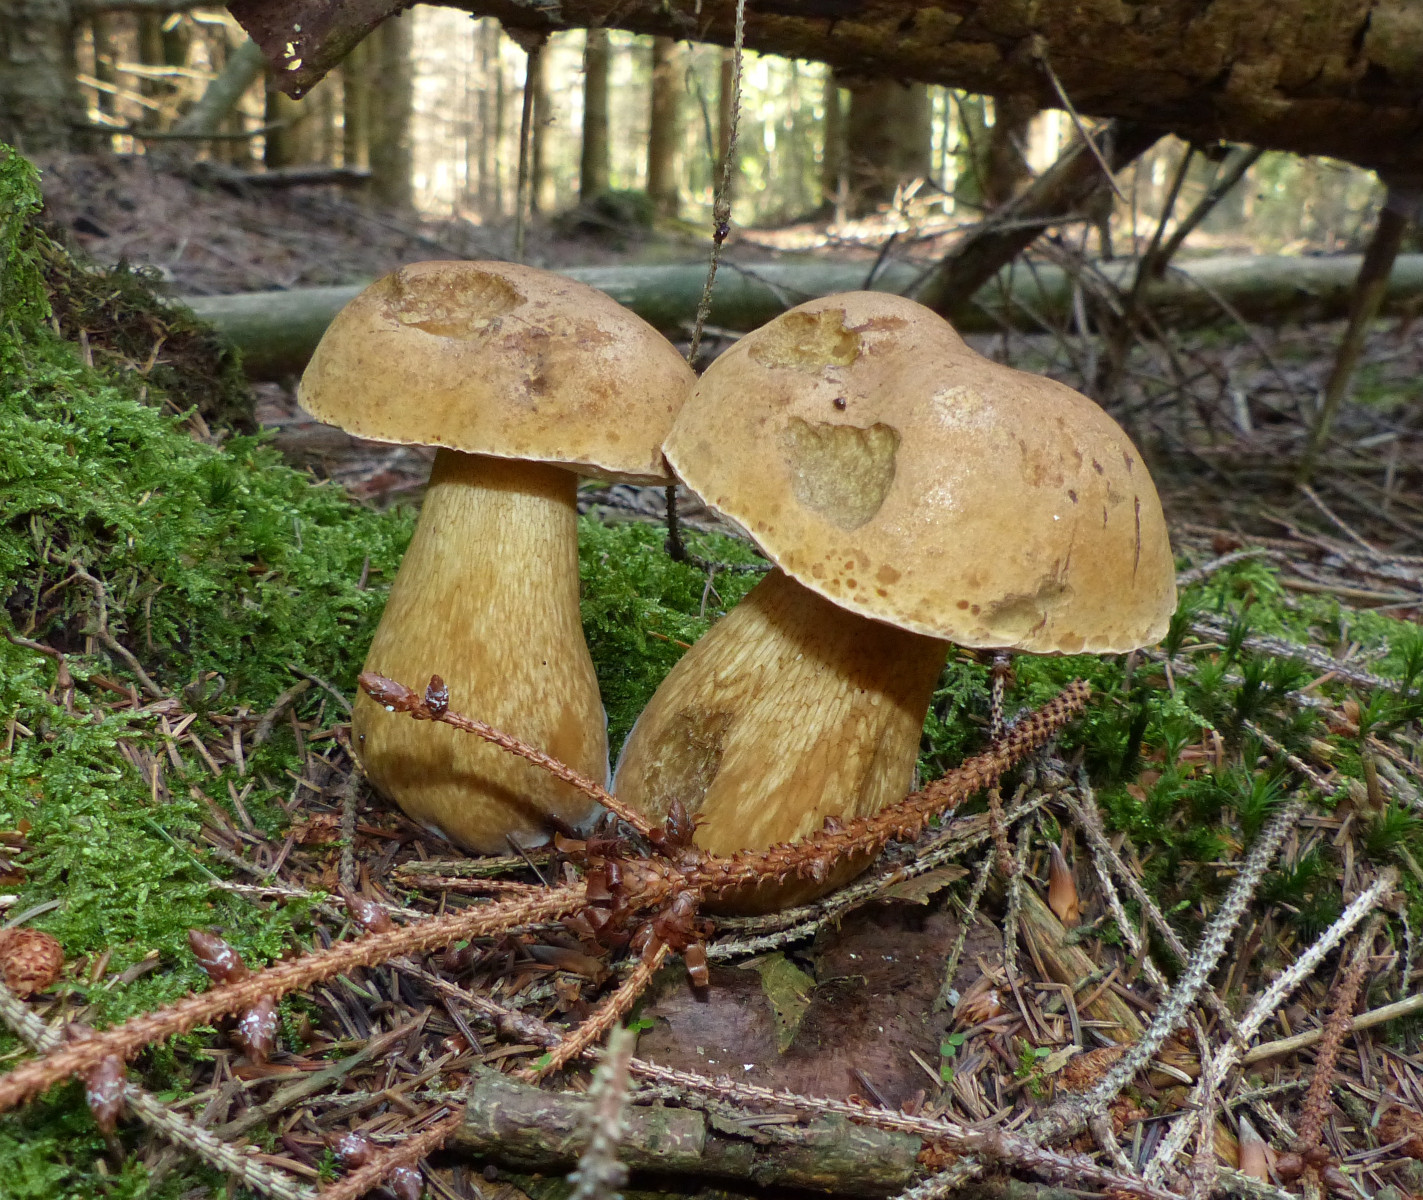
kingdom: Fungi
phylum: Basidiomycota
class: Agaricomycetes
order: Boletales
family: Boletaceae
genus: Tylopilus
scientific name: Tylopilus felleus
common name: galderørhat
